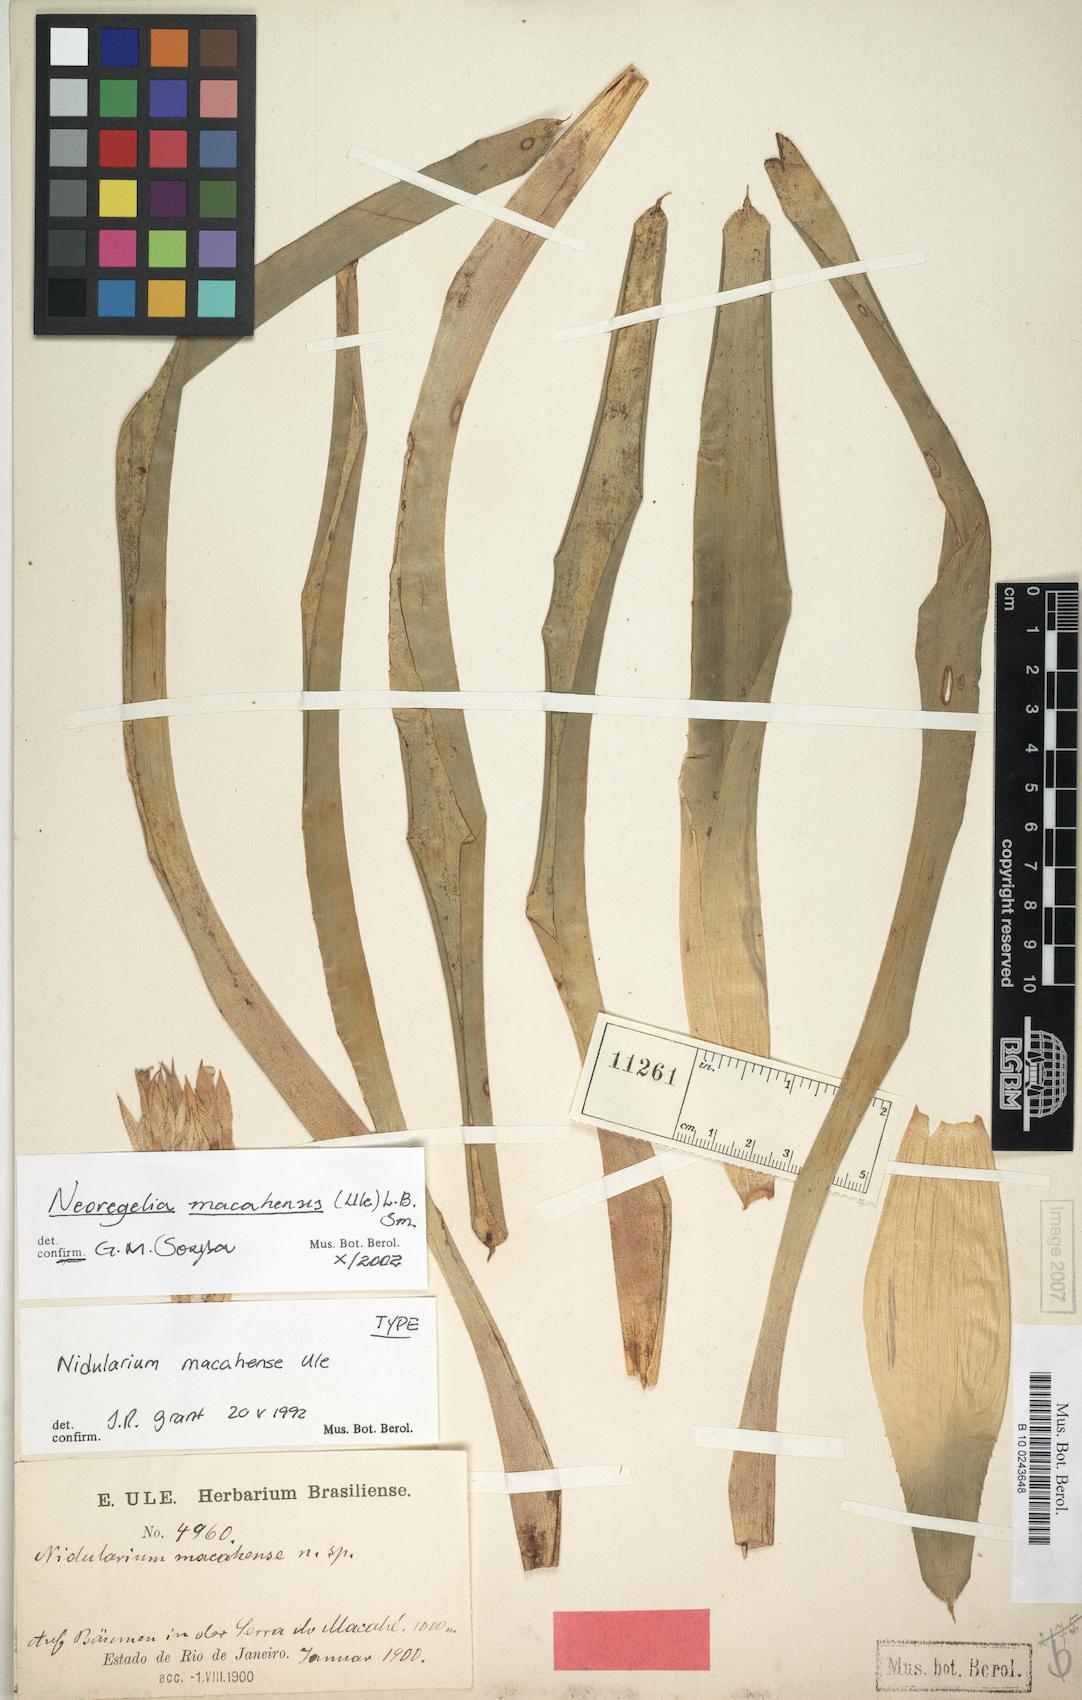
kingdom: Plantae
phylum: Tracheophyta
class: Liliopsida
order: Poales
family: Bromeliaceae
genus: Neoregelia
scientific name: Neoregelia macahensis
